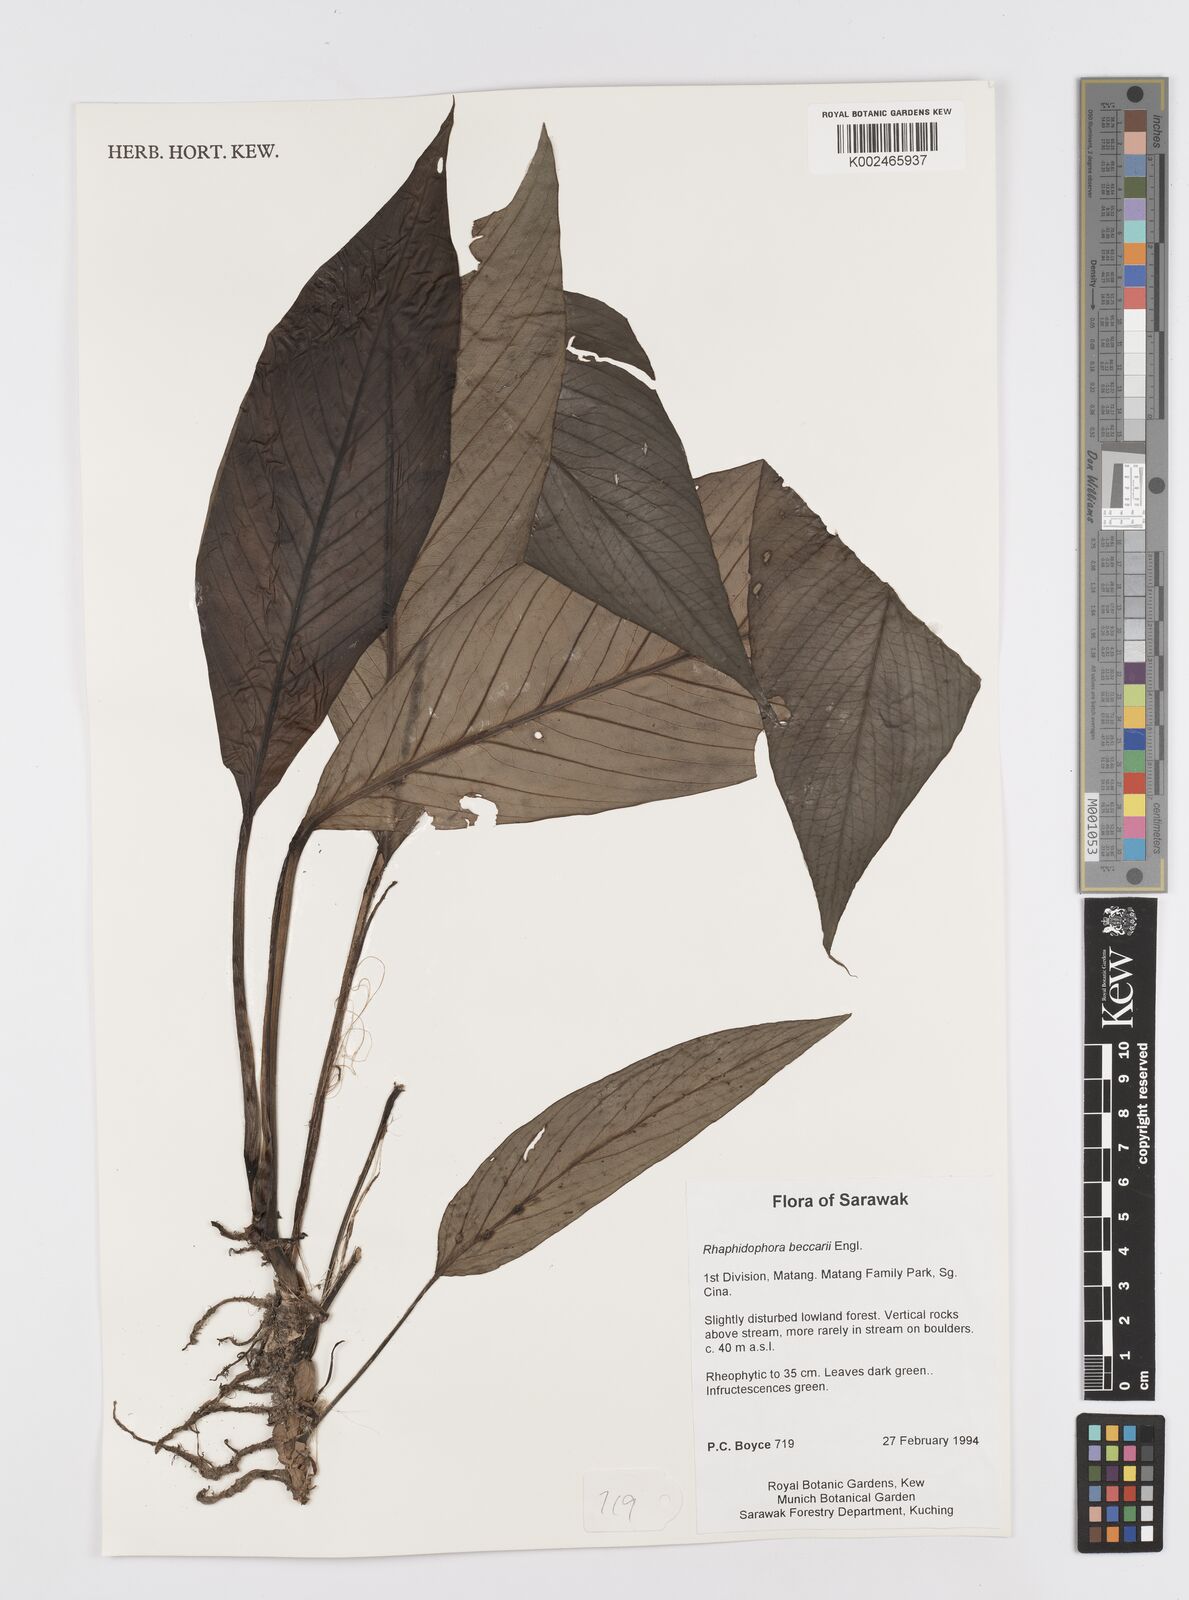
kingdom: Plantae
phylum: Tracheophyta
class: Liliopsida
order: Alismatales
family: Araceae
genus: Rhaphidophora
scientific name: Rhaphidophora beccarii
